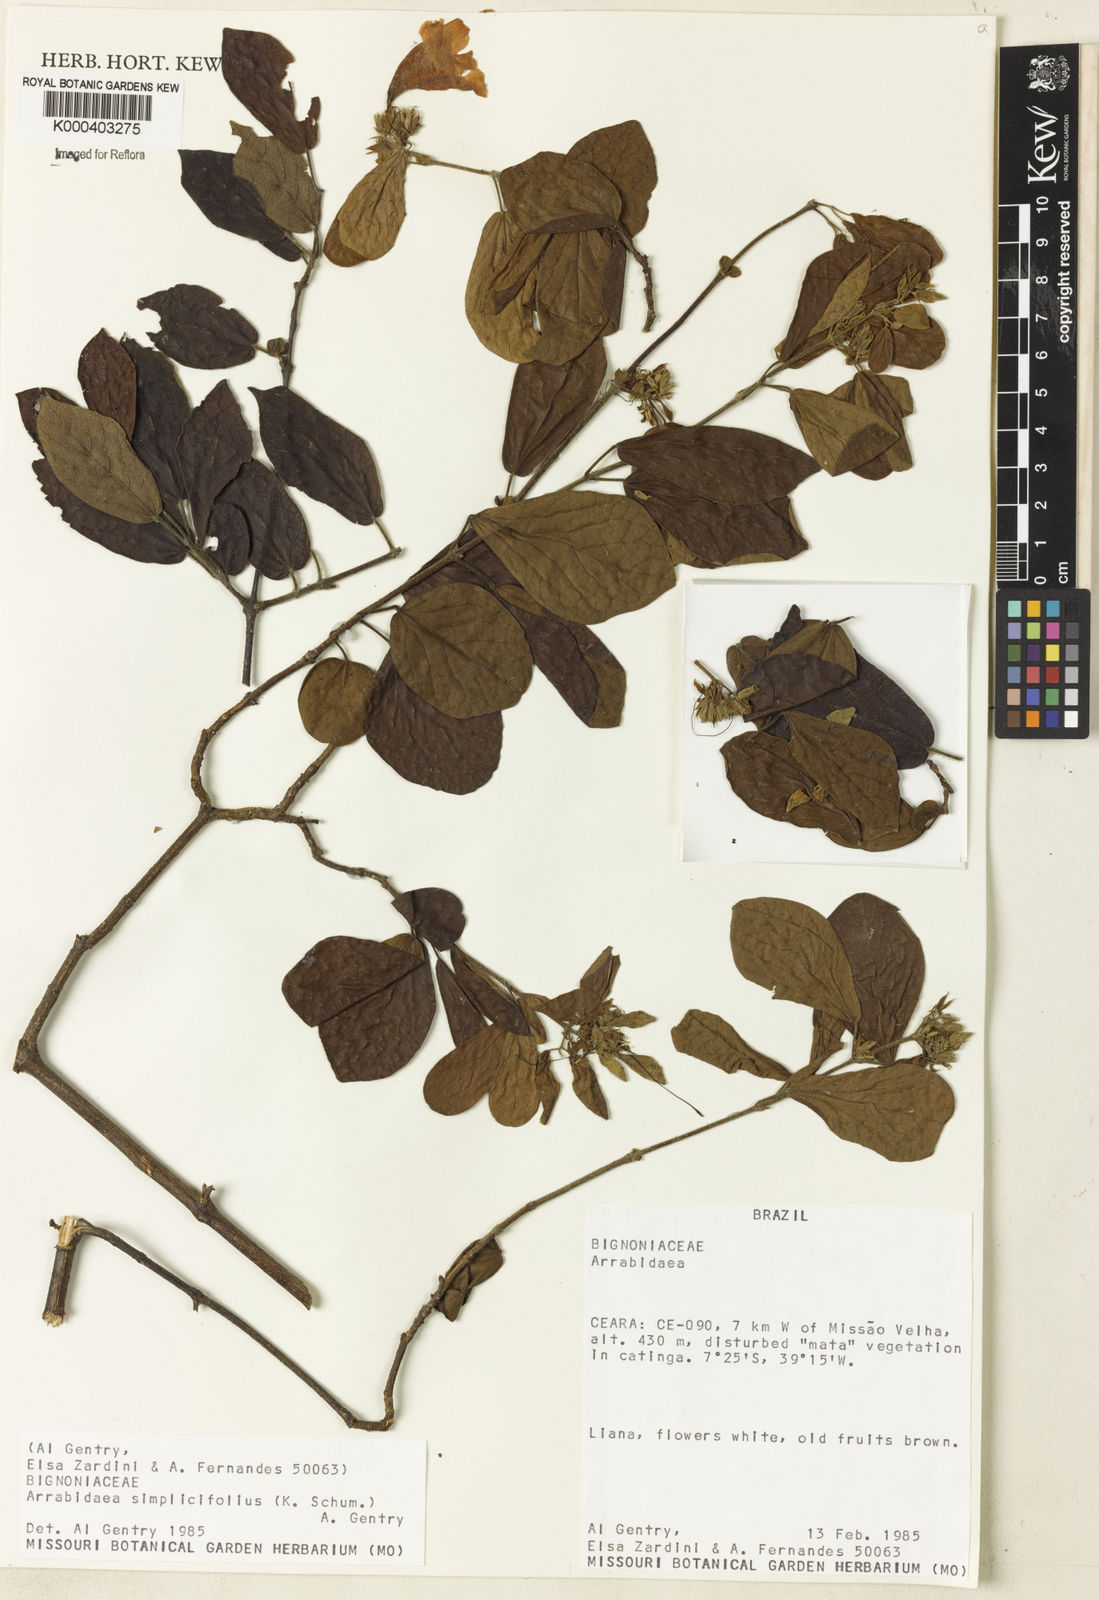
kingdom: Plantae
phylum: Tracheophyta
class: Magnoliopsida
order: Rosales
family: Rhamnaceae
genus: Arrabidaea
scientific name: Arrabidaea
